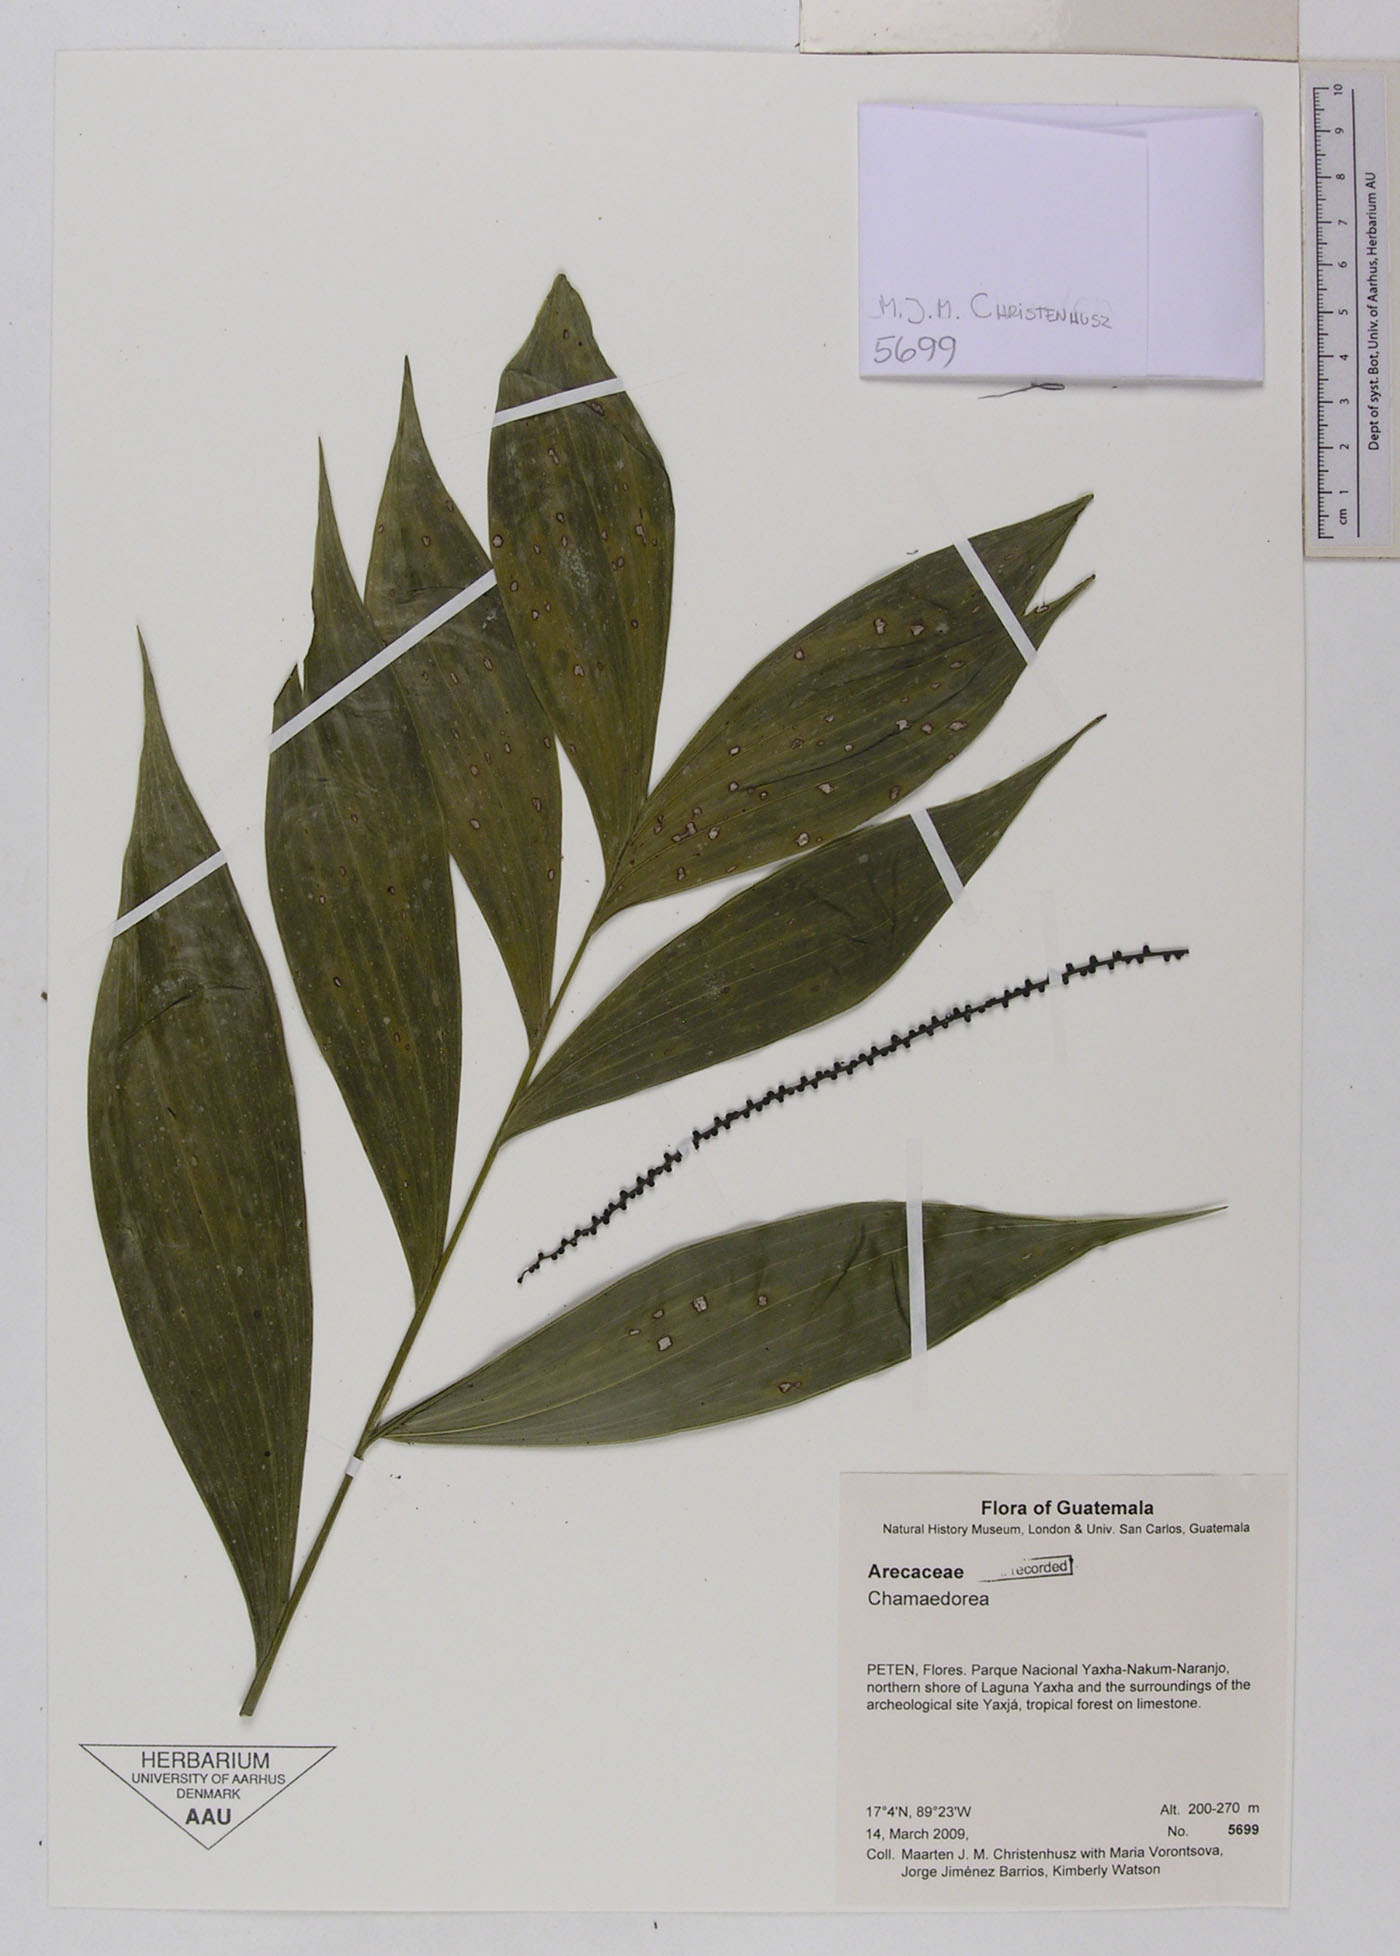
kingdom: Plantae
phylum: Tracheophyta
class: Liliopsida
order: Arecales
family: Arecaceae
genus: Chamaedorea
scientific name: Chamaedorea
